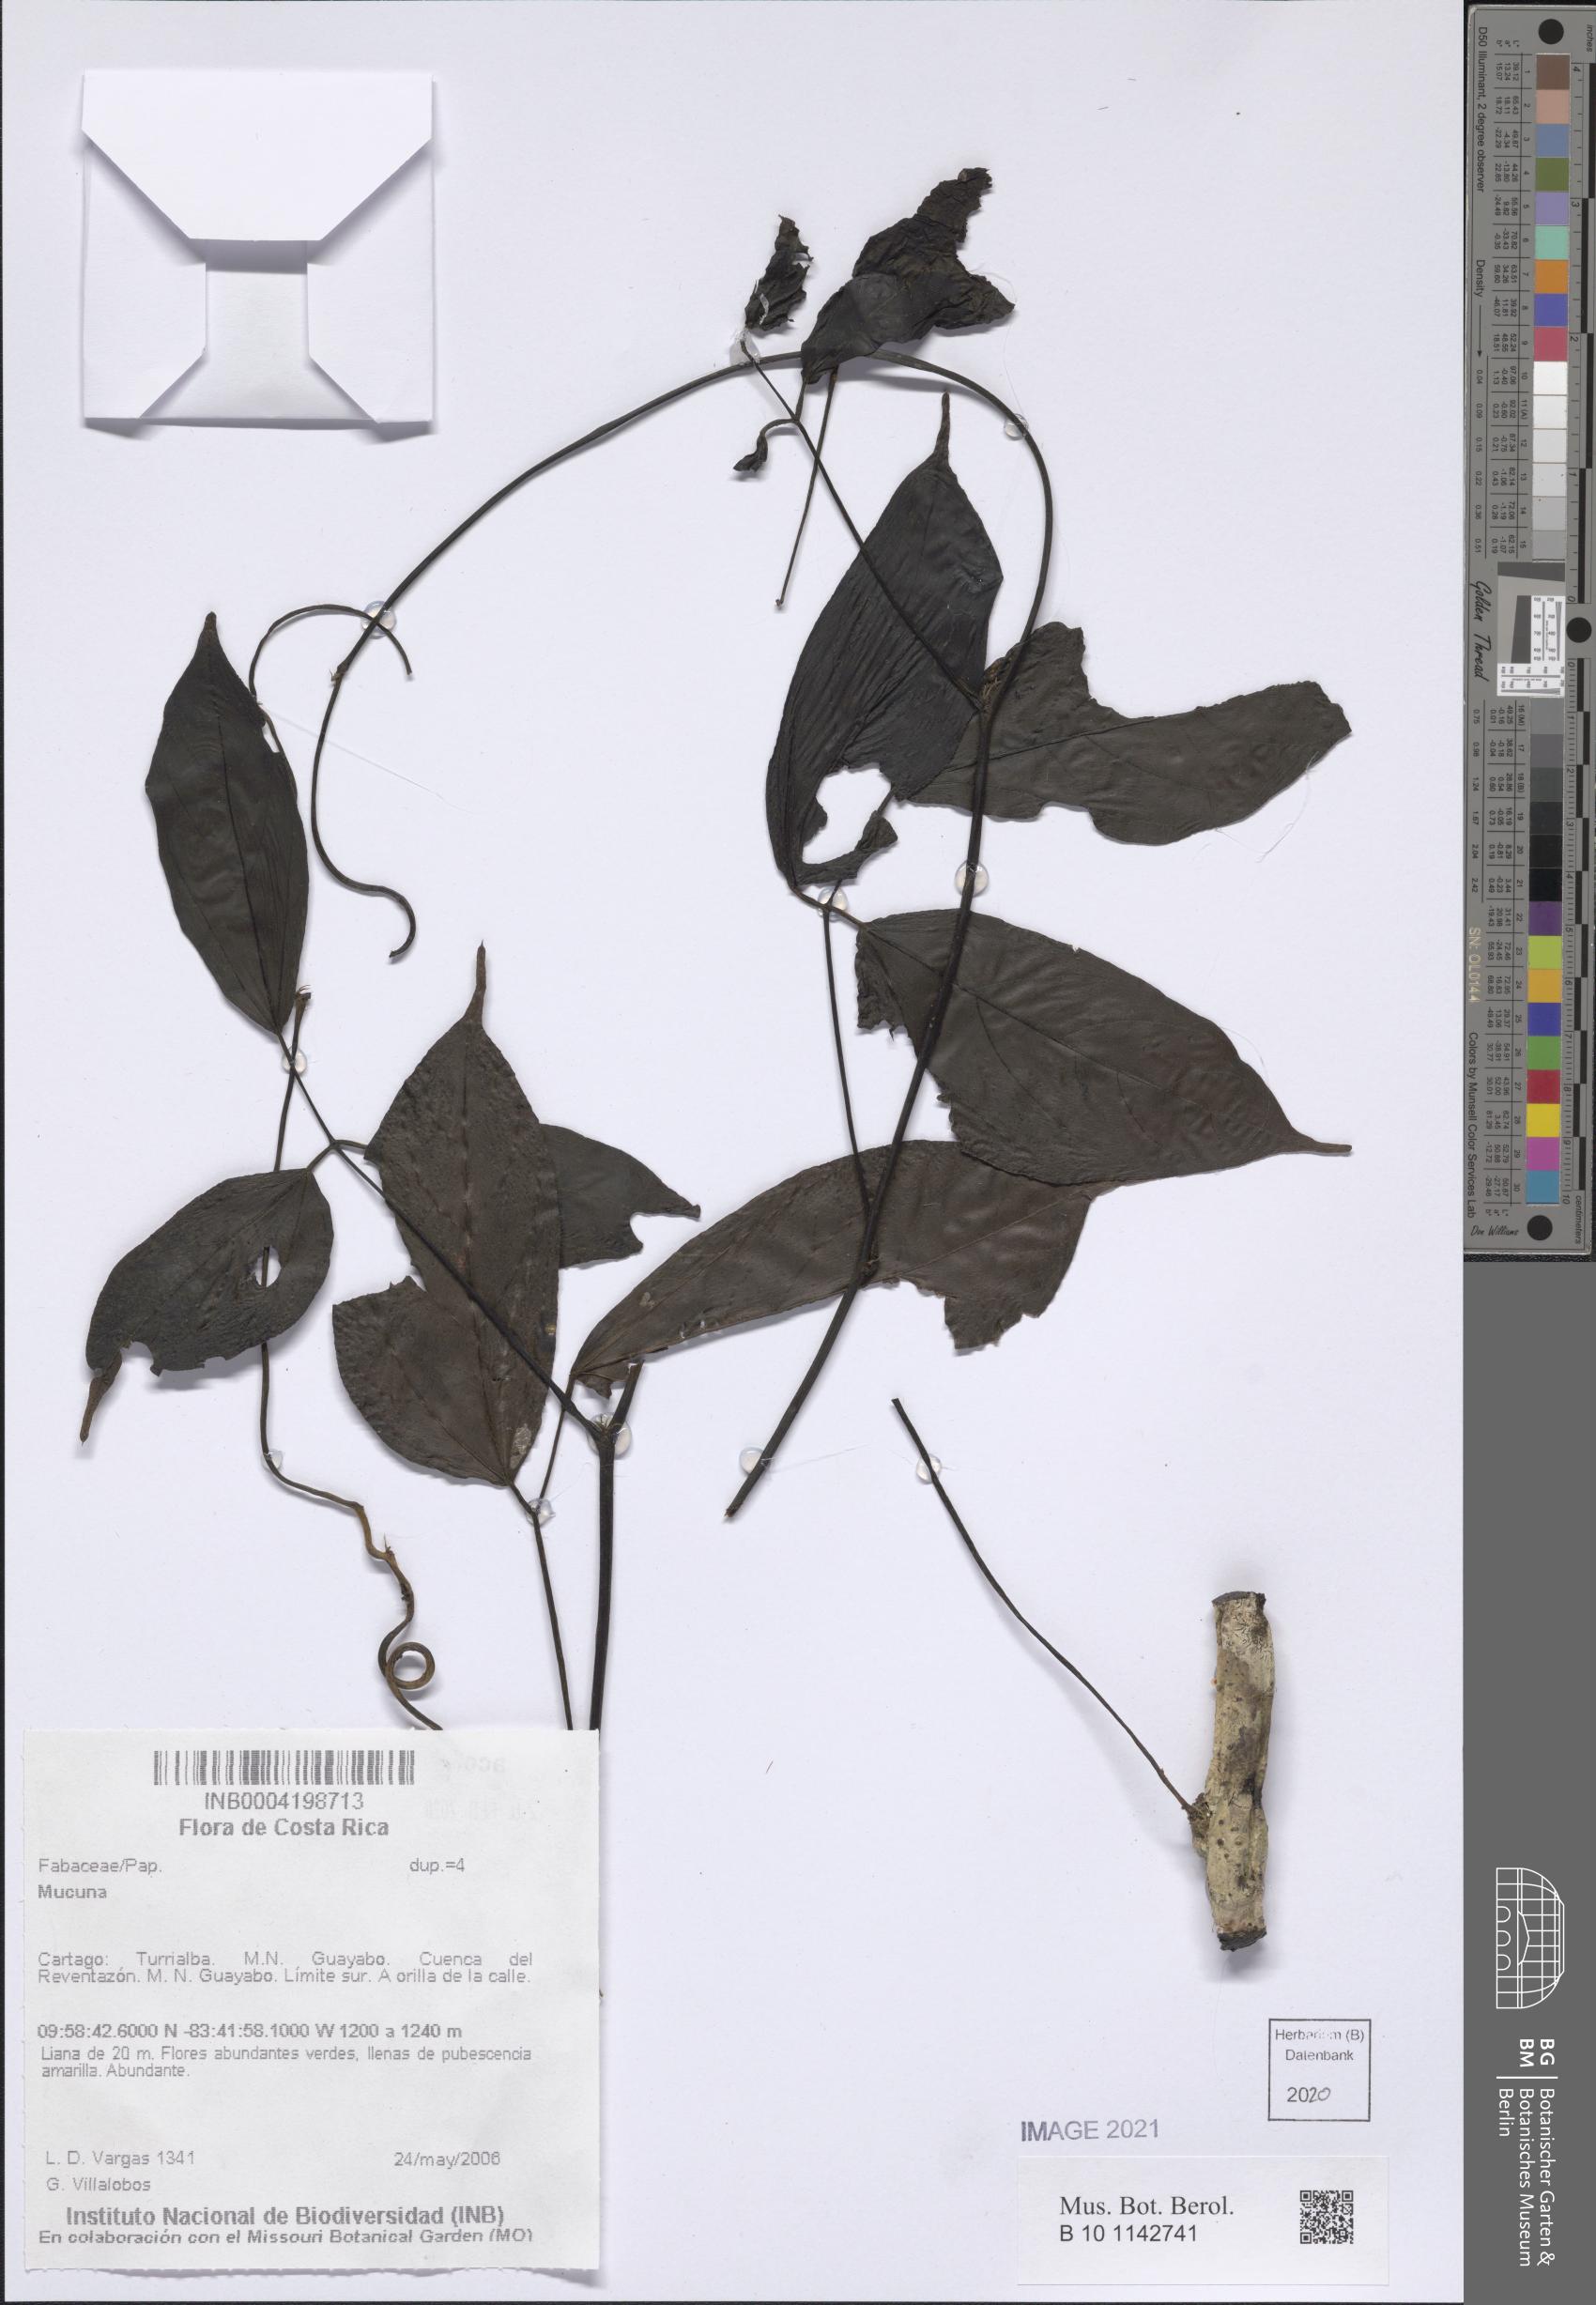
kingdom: Plantae
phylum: Tracheophyta
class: Magnoliopsida
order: Fabales
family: Fabaceae
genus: Mucuna
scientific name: Mucuna
